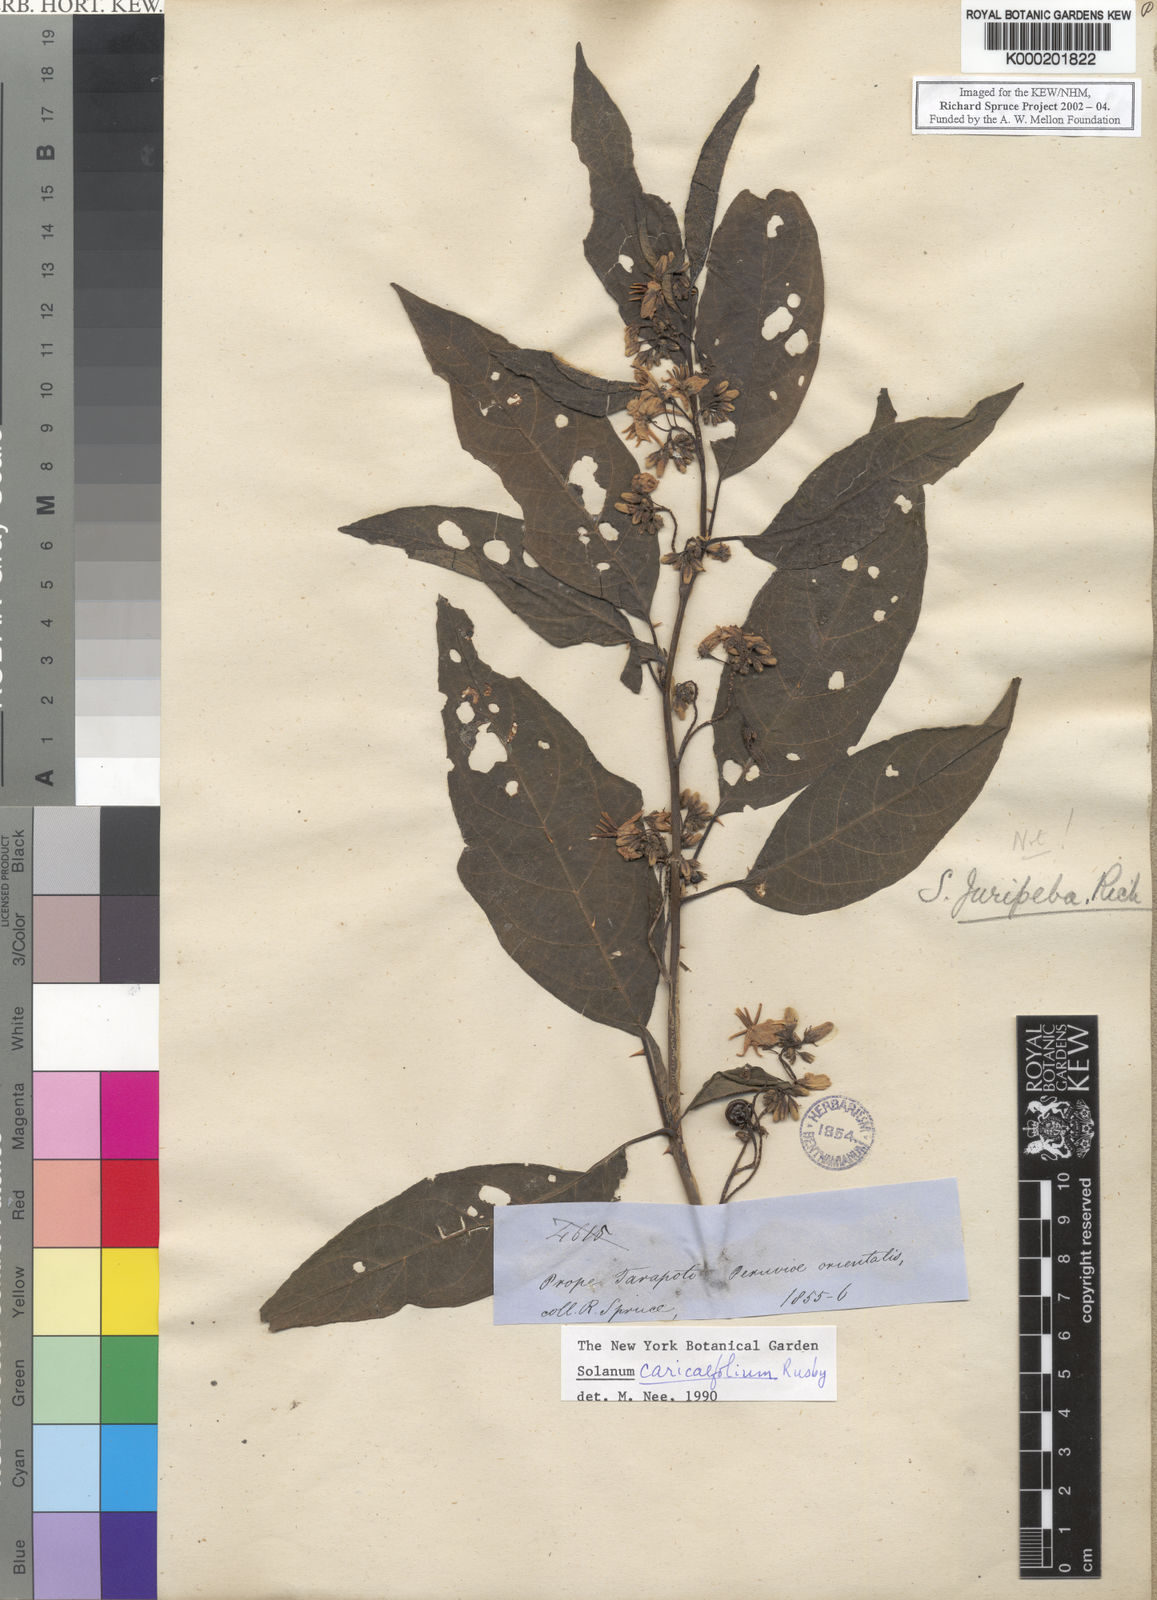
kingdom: Plantae
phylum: Tracheophyta
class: Magnoliopsida
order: Solanales
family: Solanaceae
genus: Solanum
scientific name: Solanum caricaefolium
